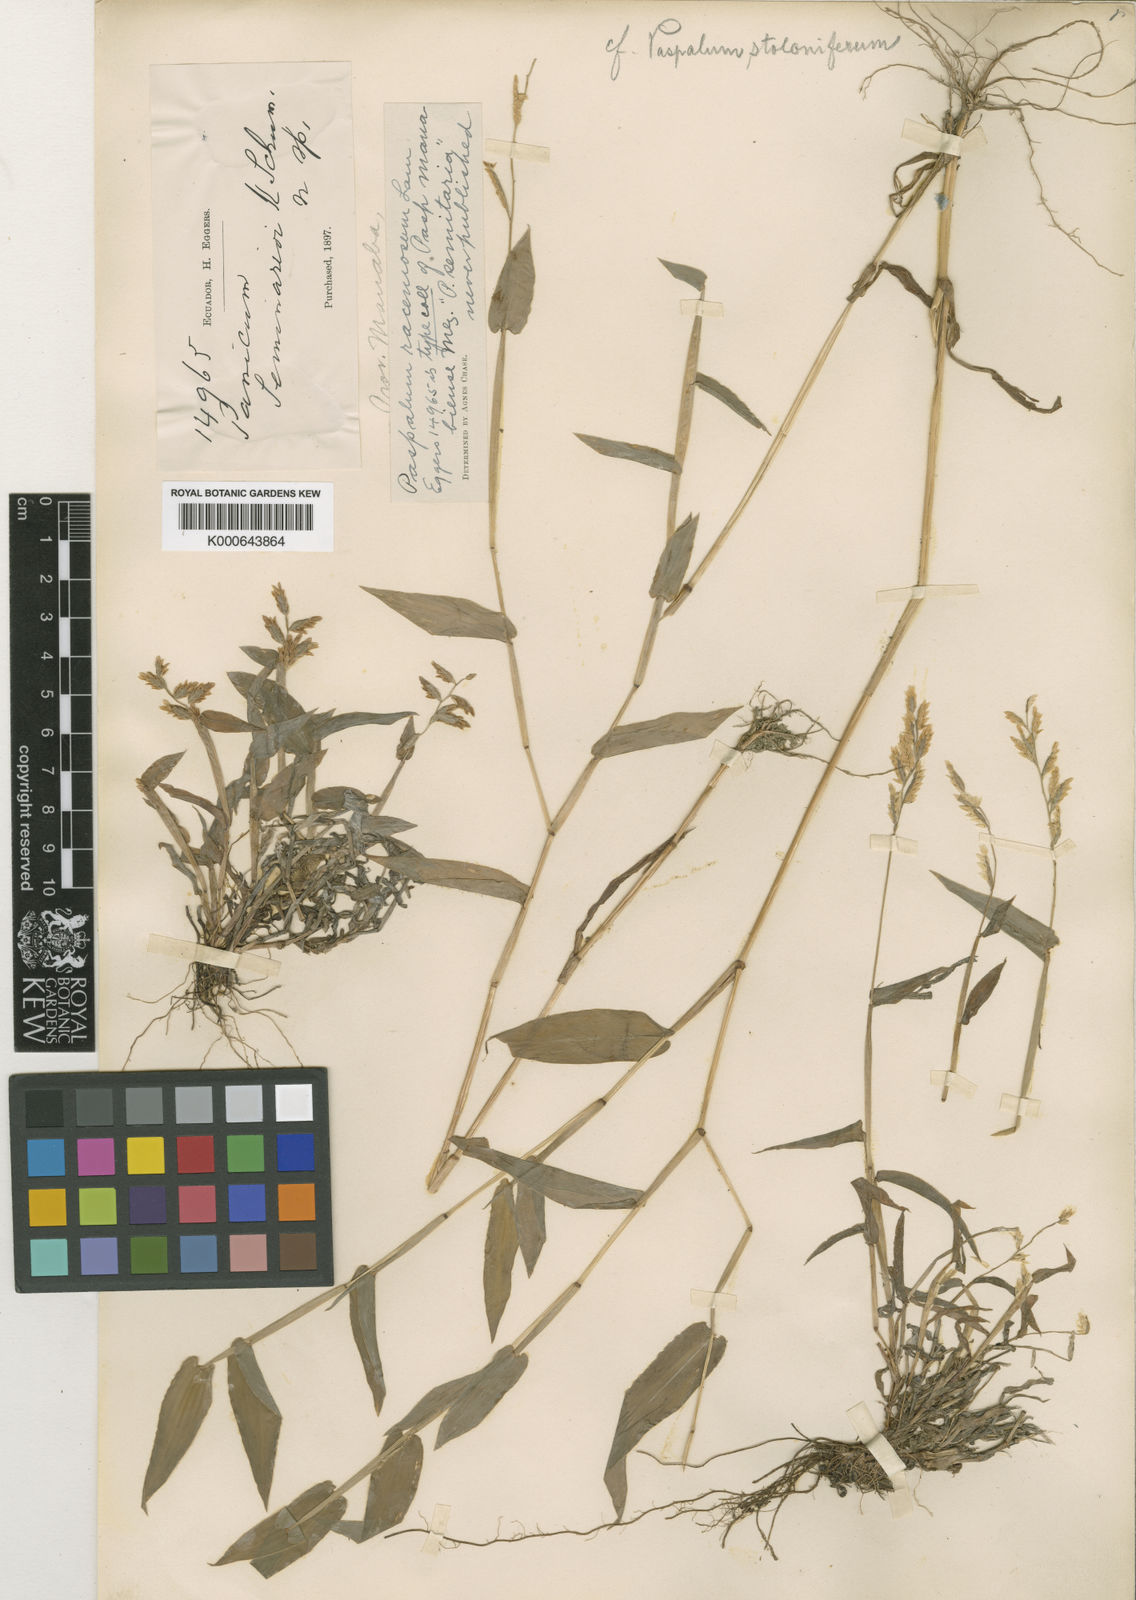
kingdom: Plantae
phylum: Tracheophyta
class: Liliopsida
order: Poales
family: Poaceae
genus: Paspalum
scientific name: Paspalum racemosum
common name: Peruvian paspalum
